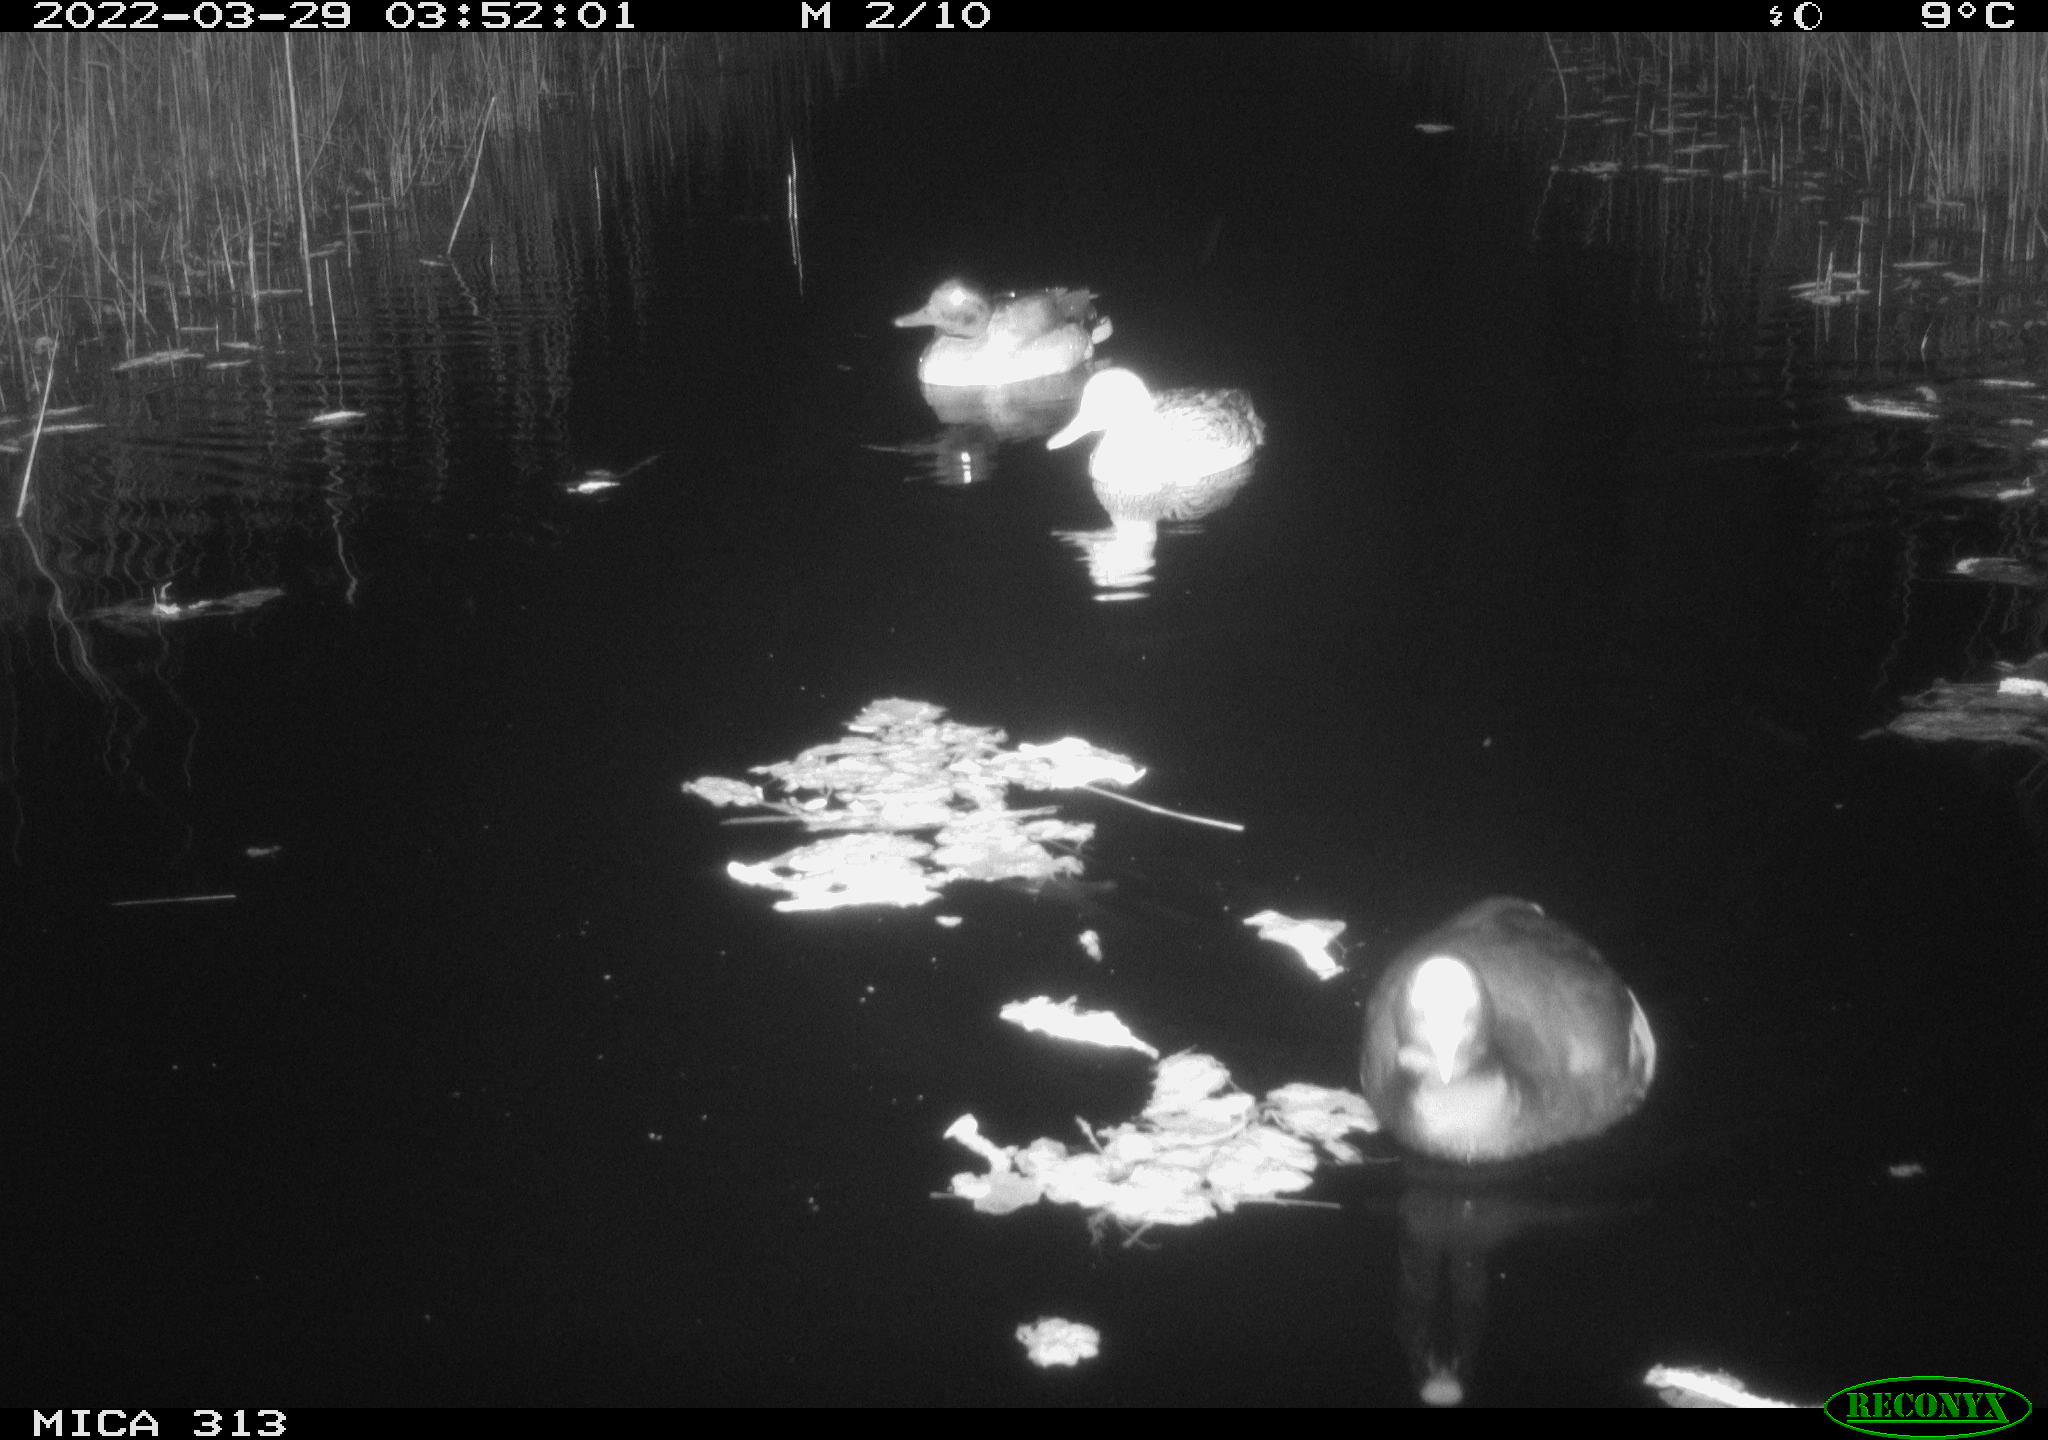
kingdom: Animalia
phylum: Chordata
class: Aves
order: Gruiformes
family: Rallidae
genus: Fulica
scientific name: Fulica atra
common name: Eurasian coot
